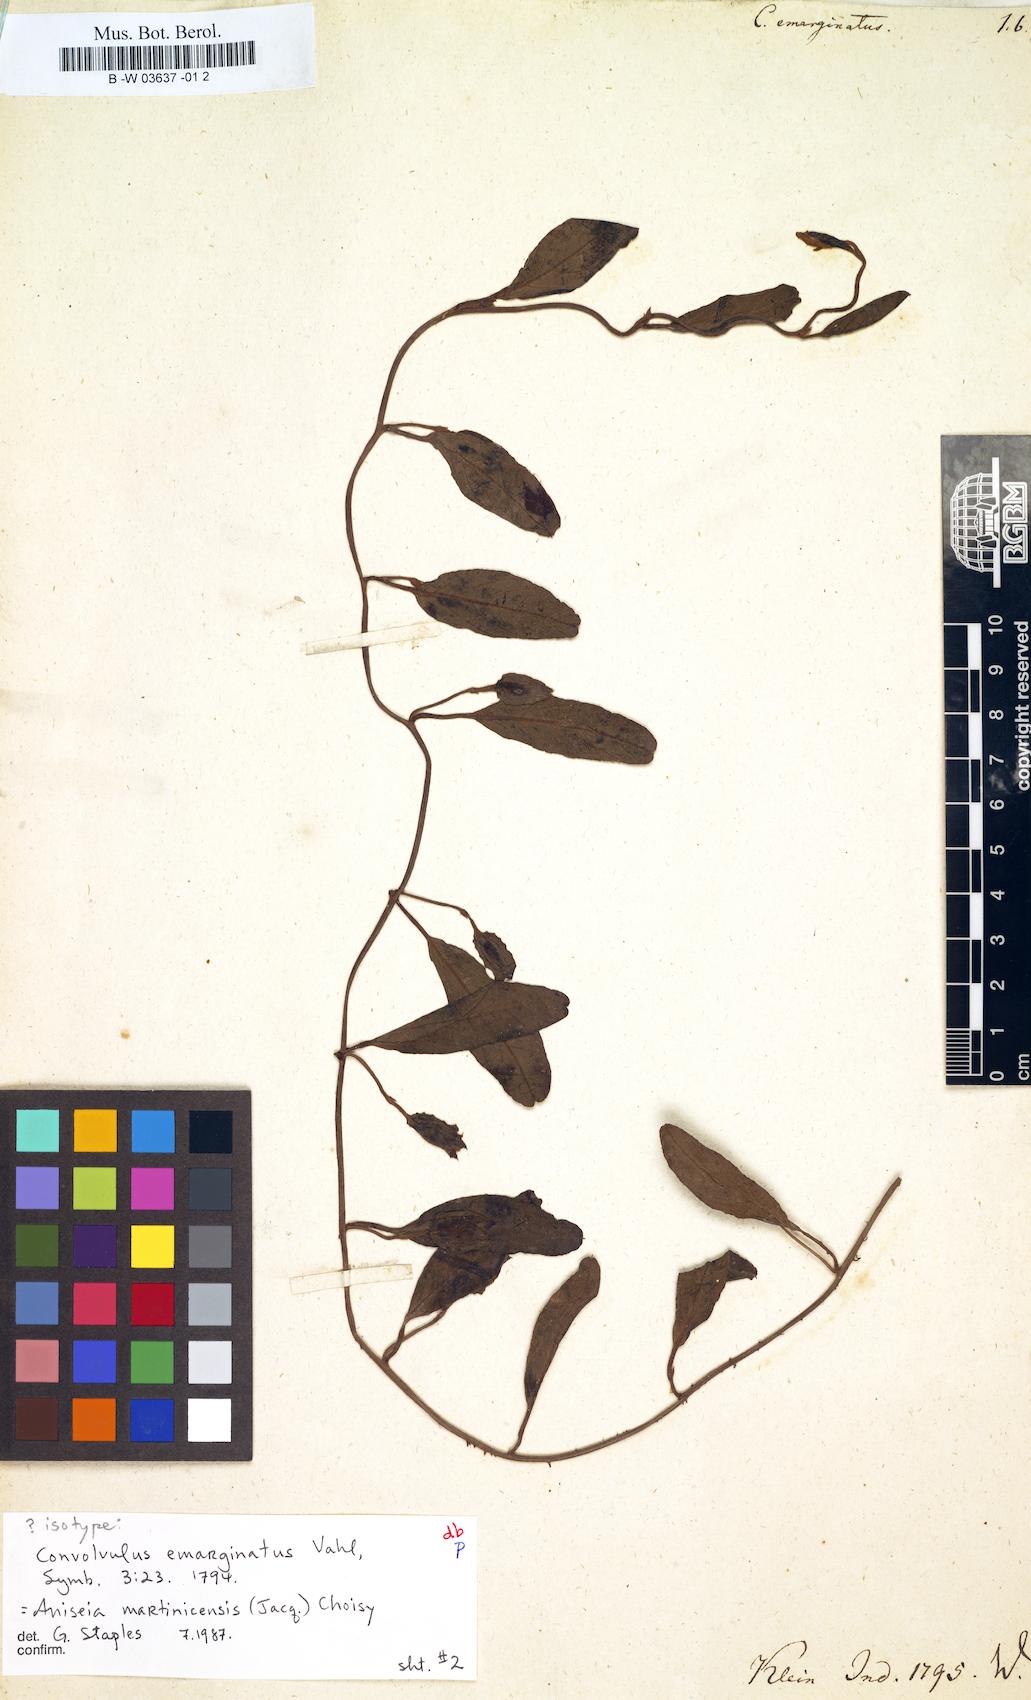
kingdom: Plantae
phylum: Tracheophyta
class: Magnoliopsida
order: Solanales
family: Convolvulaceae
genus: Aniseia
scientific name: Aniseia martinicensis
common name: Kulayadambu
